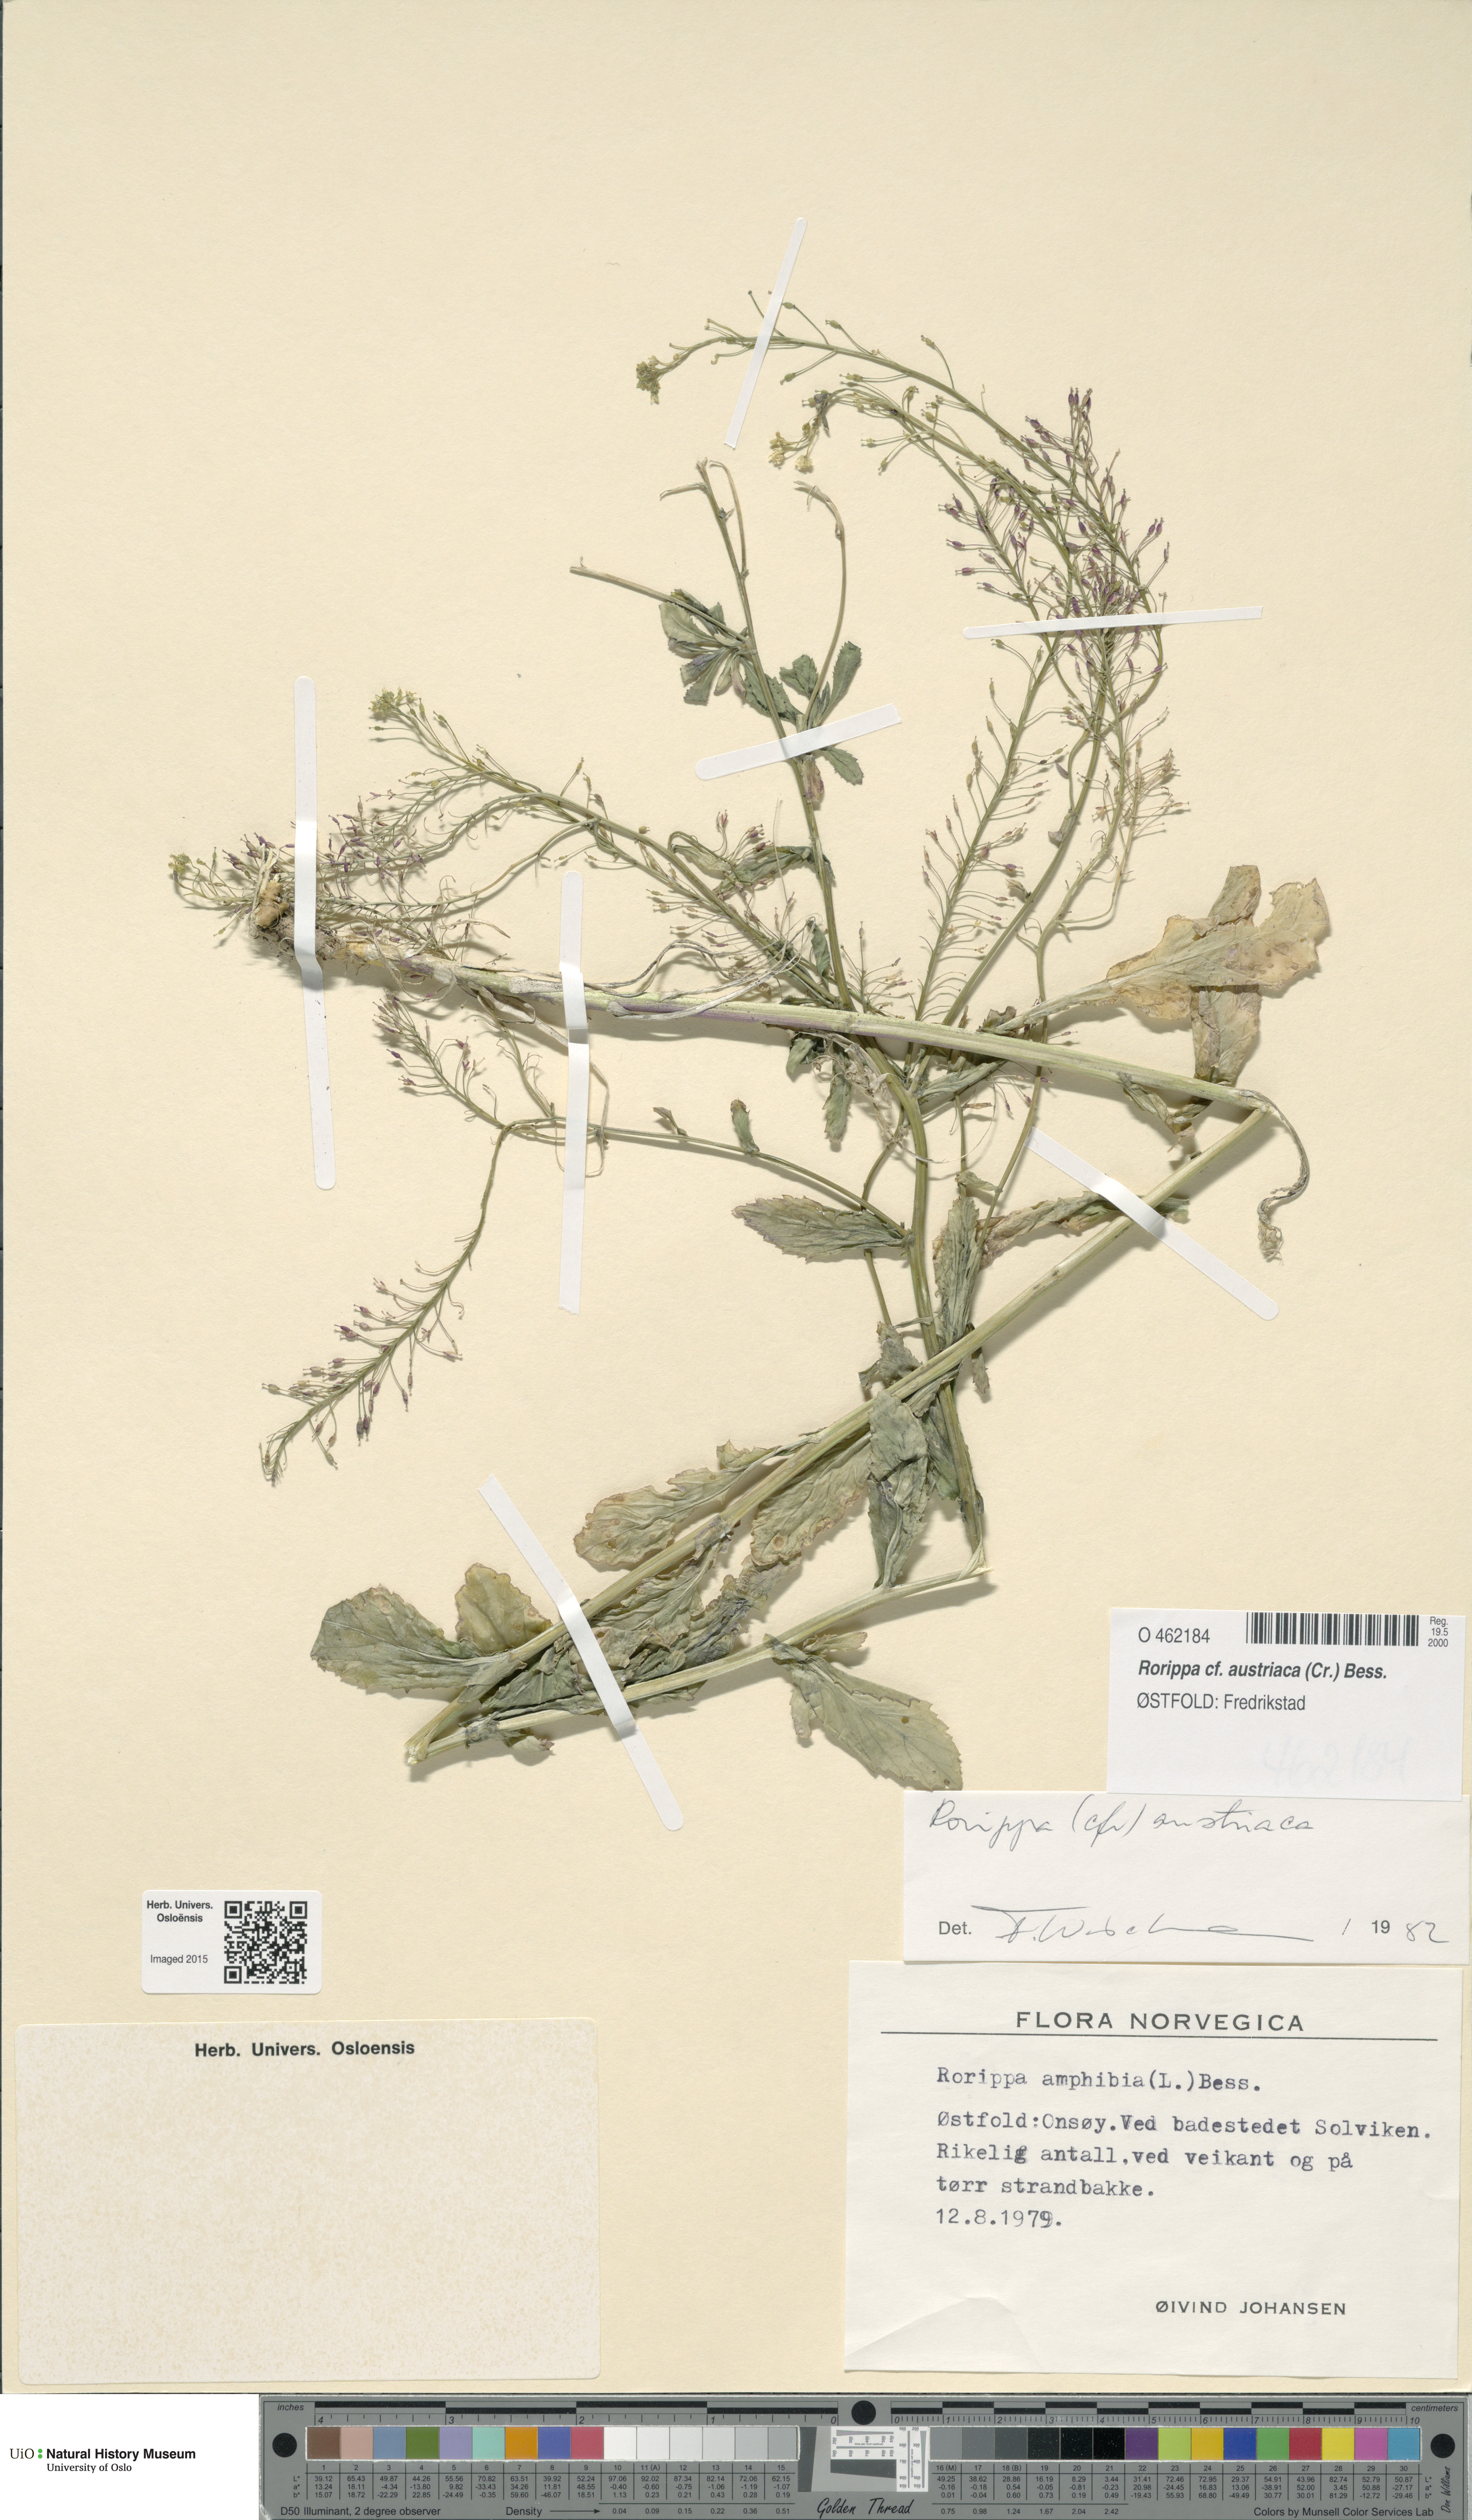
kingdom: Plantae
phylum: Tracheophyta
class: Magnoliopsida
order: Brassicales
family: Brassicaceae
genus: Rorippa
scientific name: Rorippa austriaca
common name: Austrian yellow-cress
